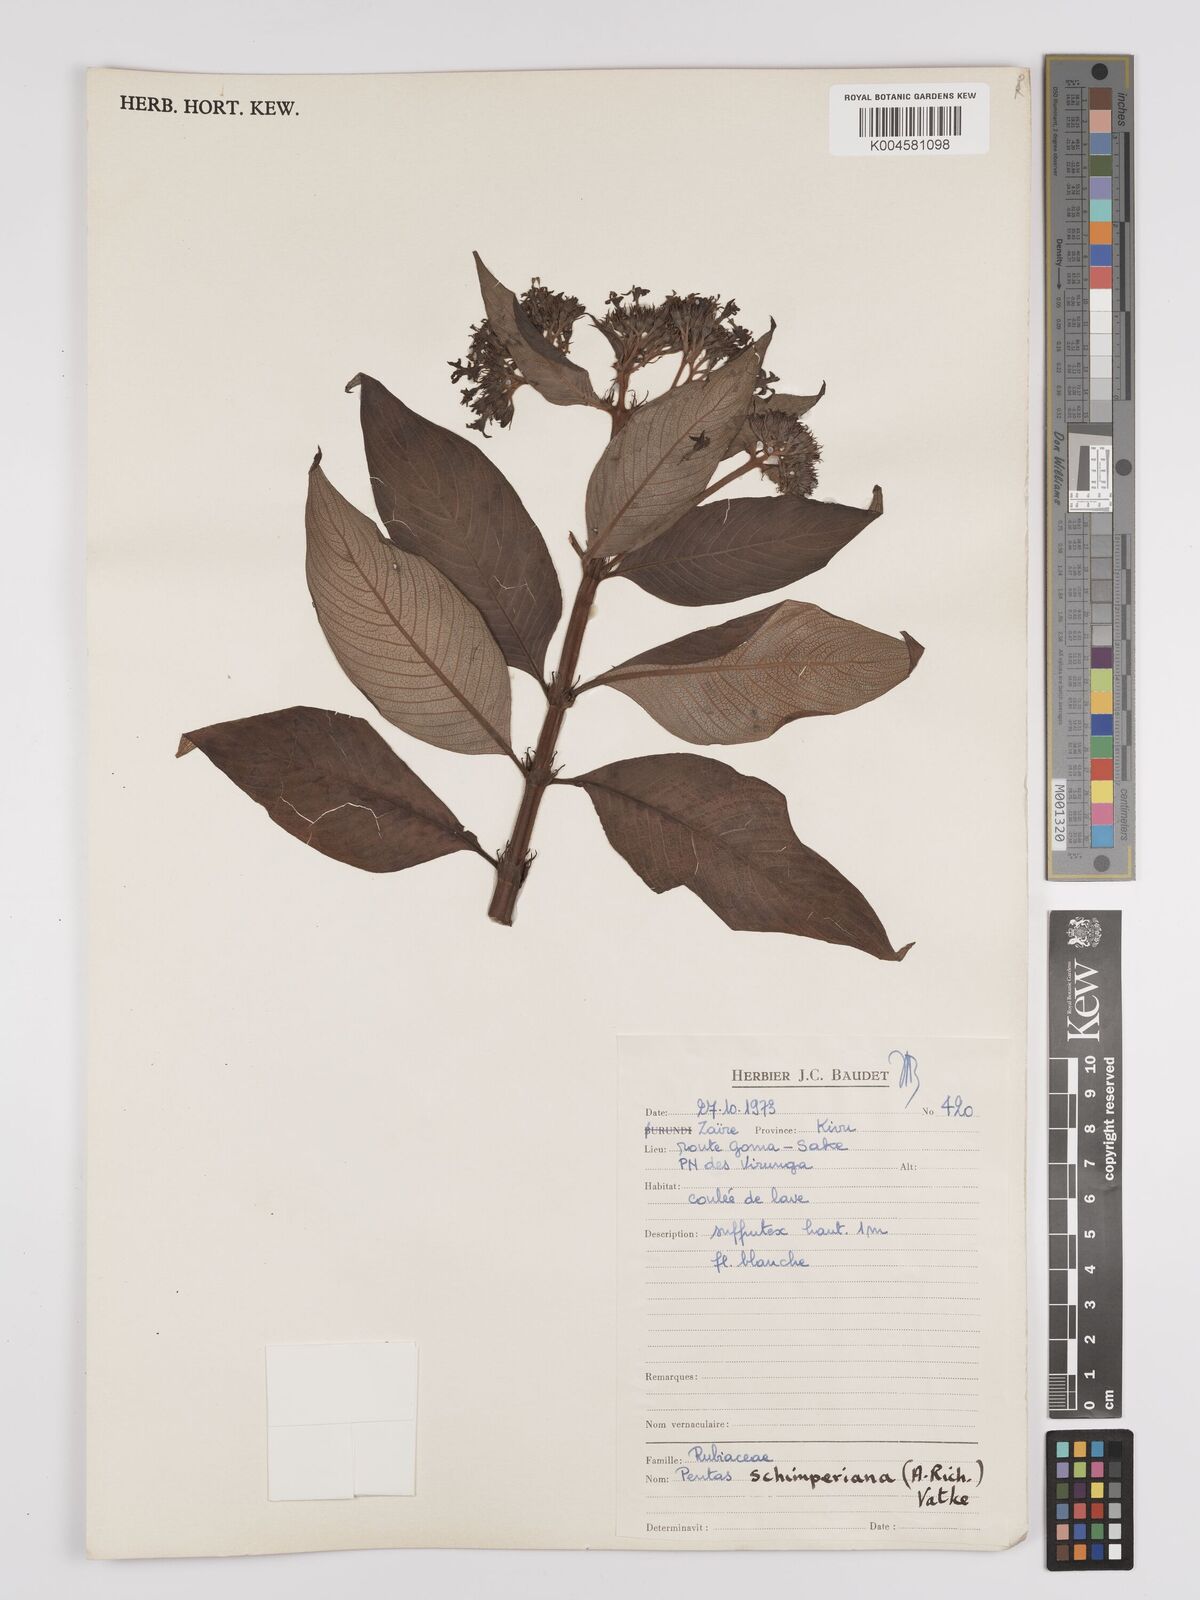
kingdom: Plantae
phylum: Tracheophyta
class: Magnoliopsida
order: Gentianales
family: Rubiaceae
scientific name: Rubiaceae
